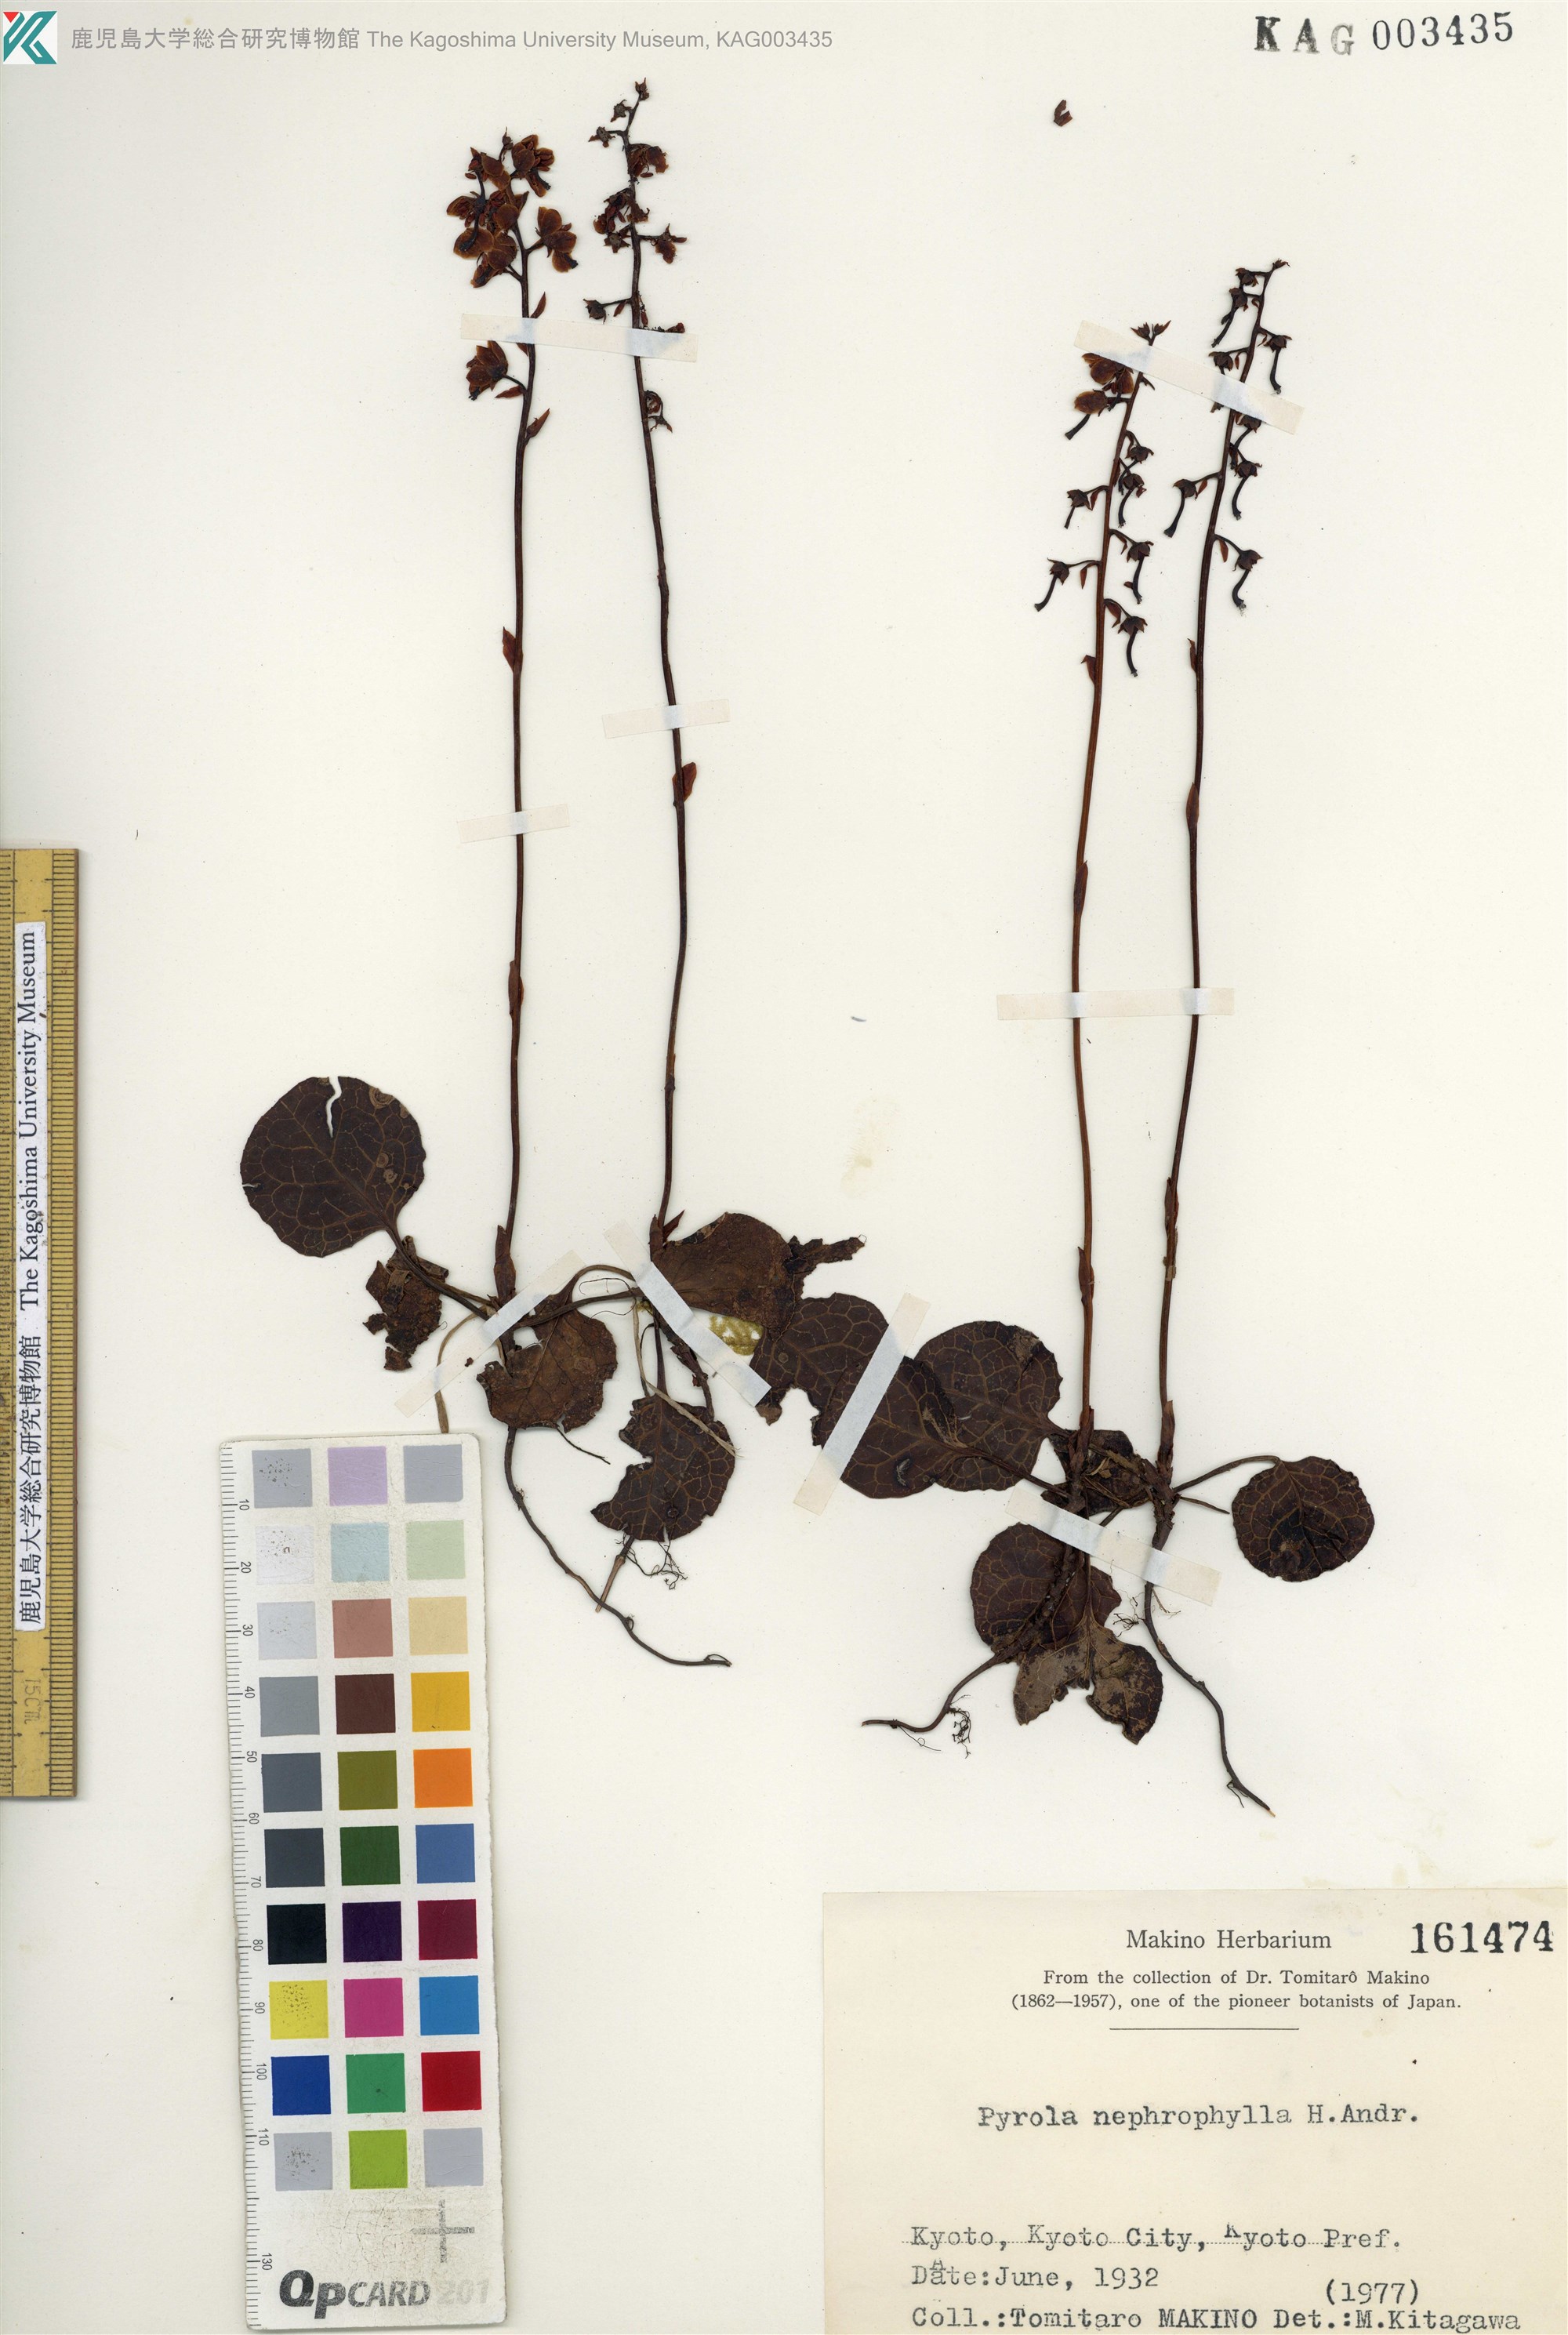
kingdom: Plantae
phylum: Tracheophyta
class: Magnoliopsida
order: Ericales
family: Ericaceae
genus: Pyrola
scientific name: Pyrola nephrophylla
